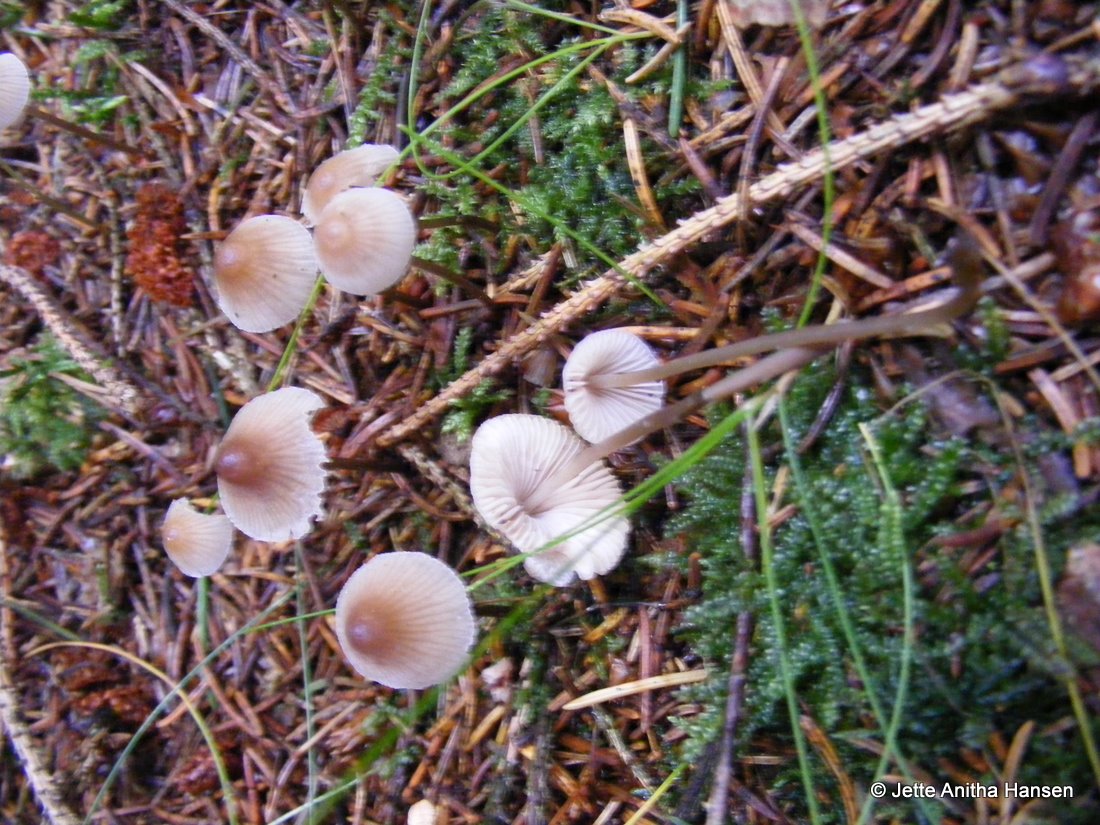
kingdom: Fungi
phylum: Basidiomycota
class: Agaricomycetes
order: Agaricales
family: Mycenaceae
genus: Mycena
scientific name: Mycena filopes
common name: jod-huesvamp
